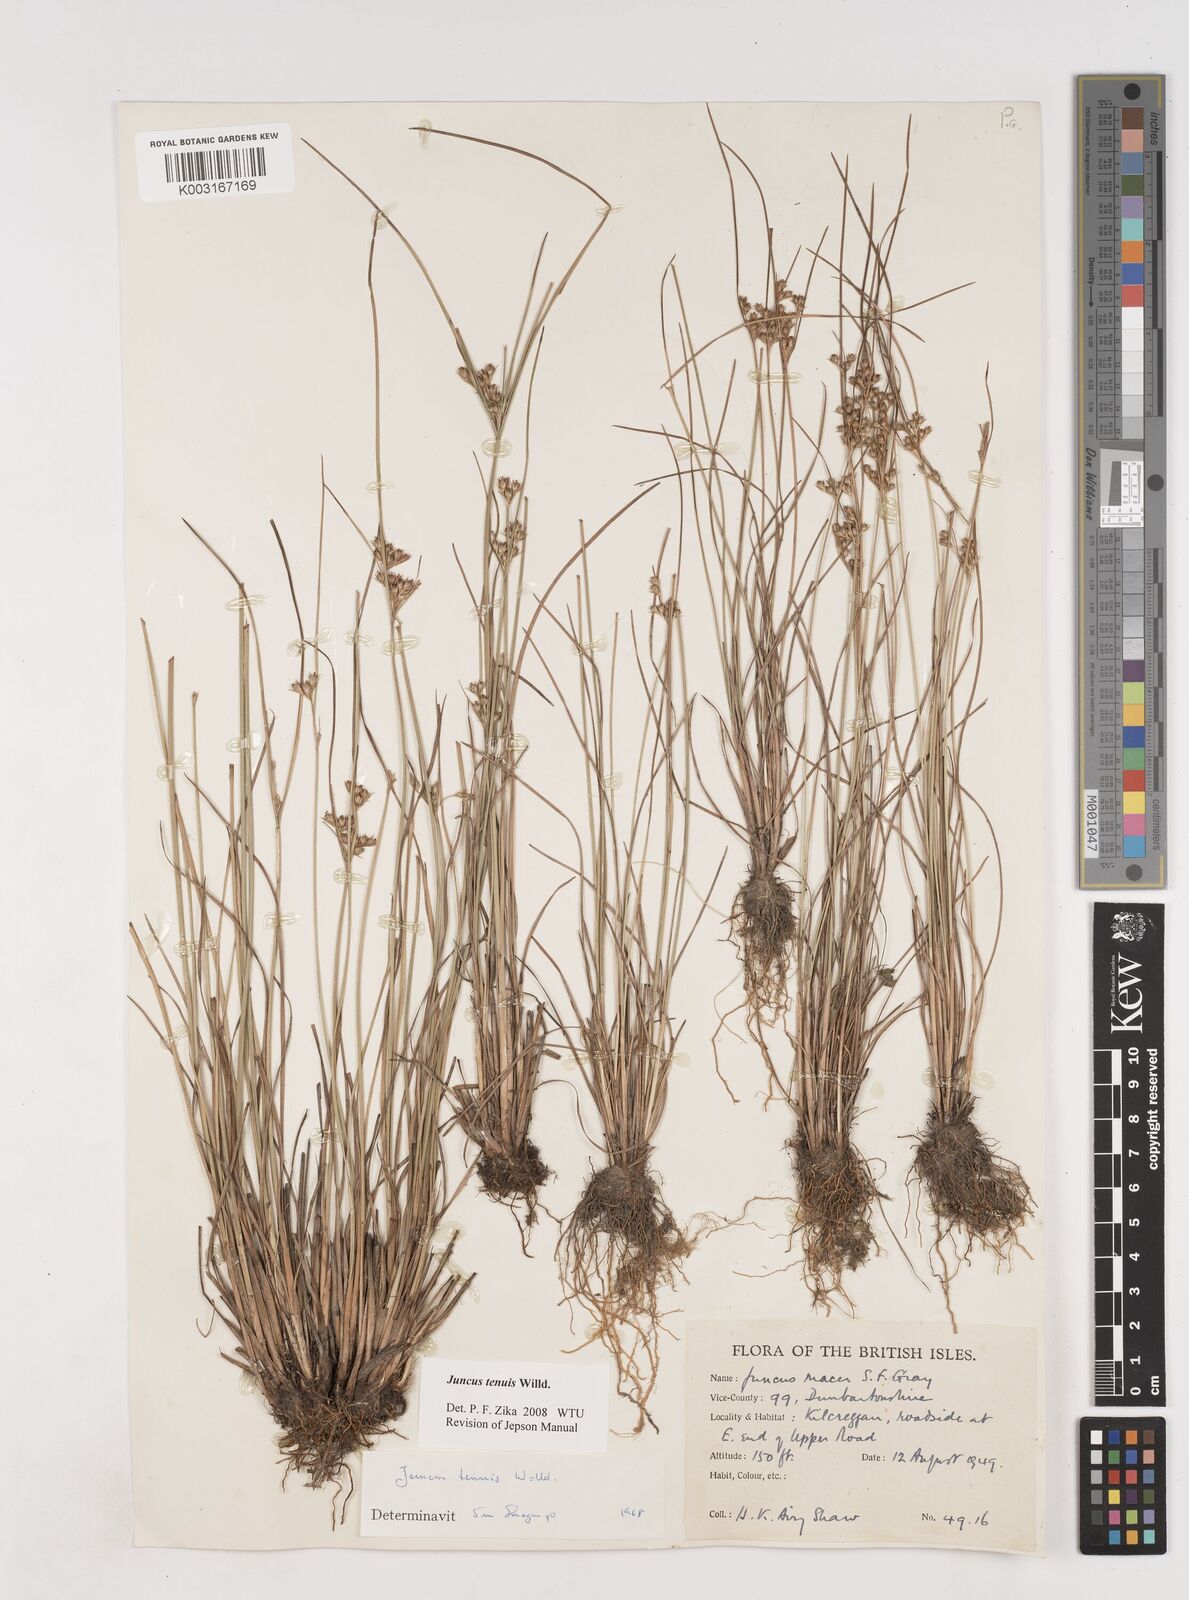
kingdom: Plantae
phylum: Tracheophyta
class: Liliopsida
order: Poales
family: Juncaceae
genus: Juncus
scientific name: Juncus tenuis
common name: Slender rush
